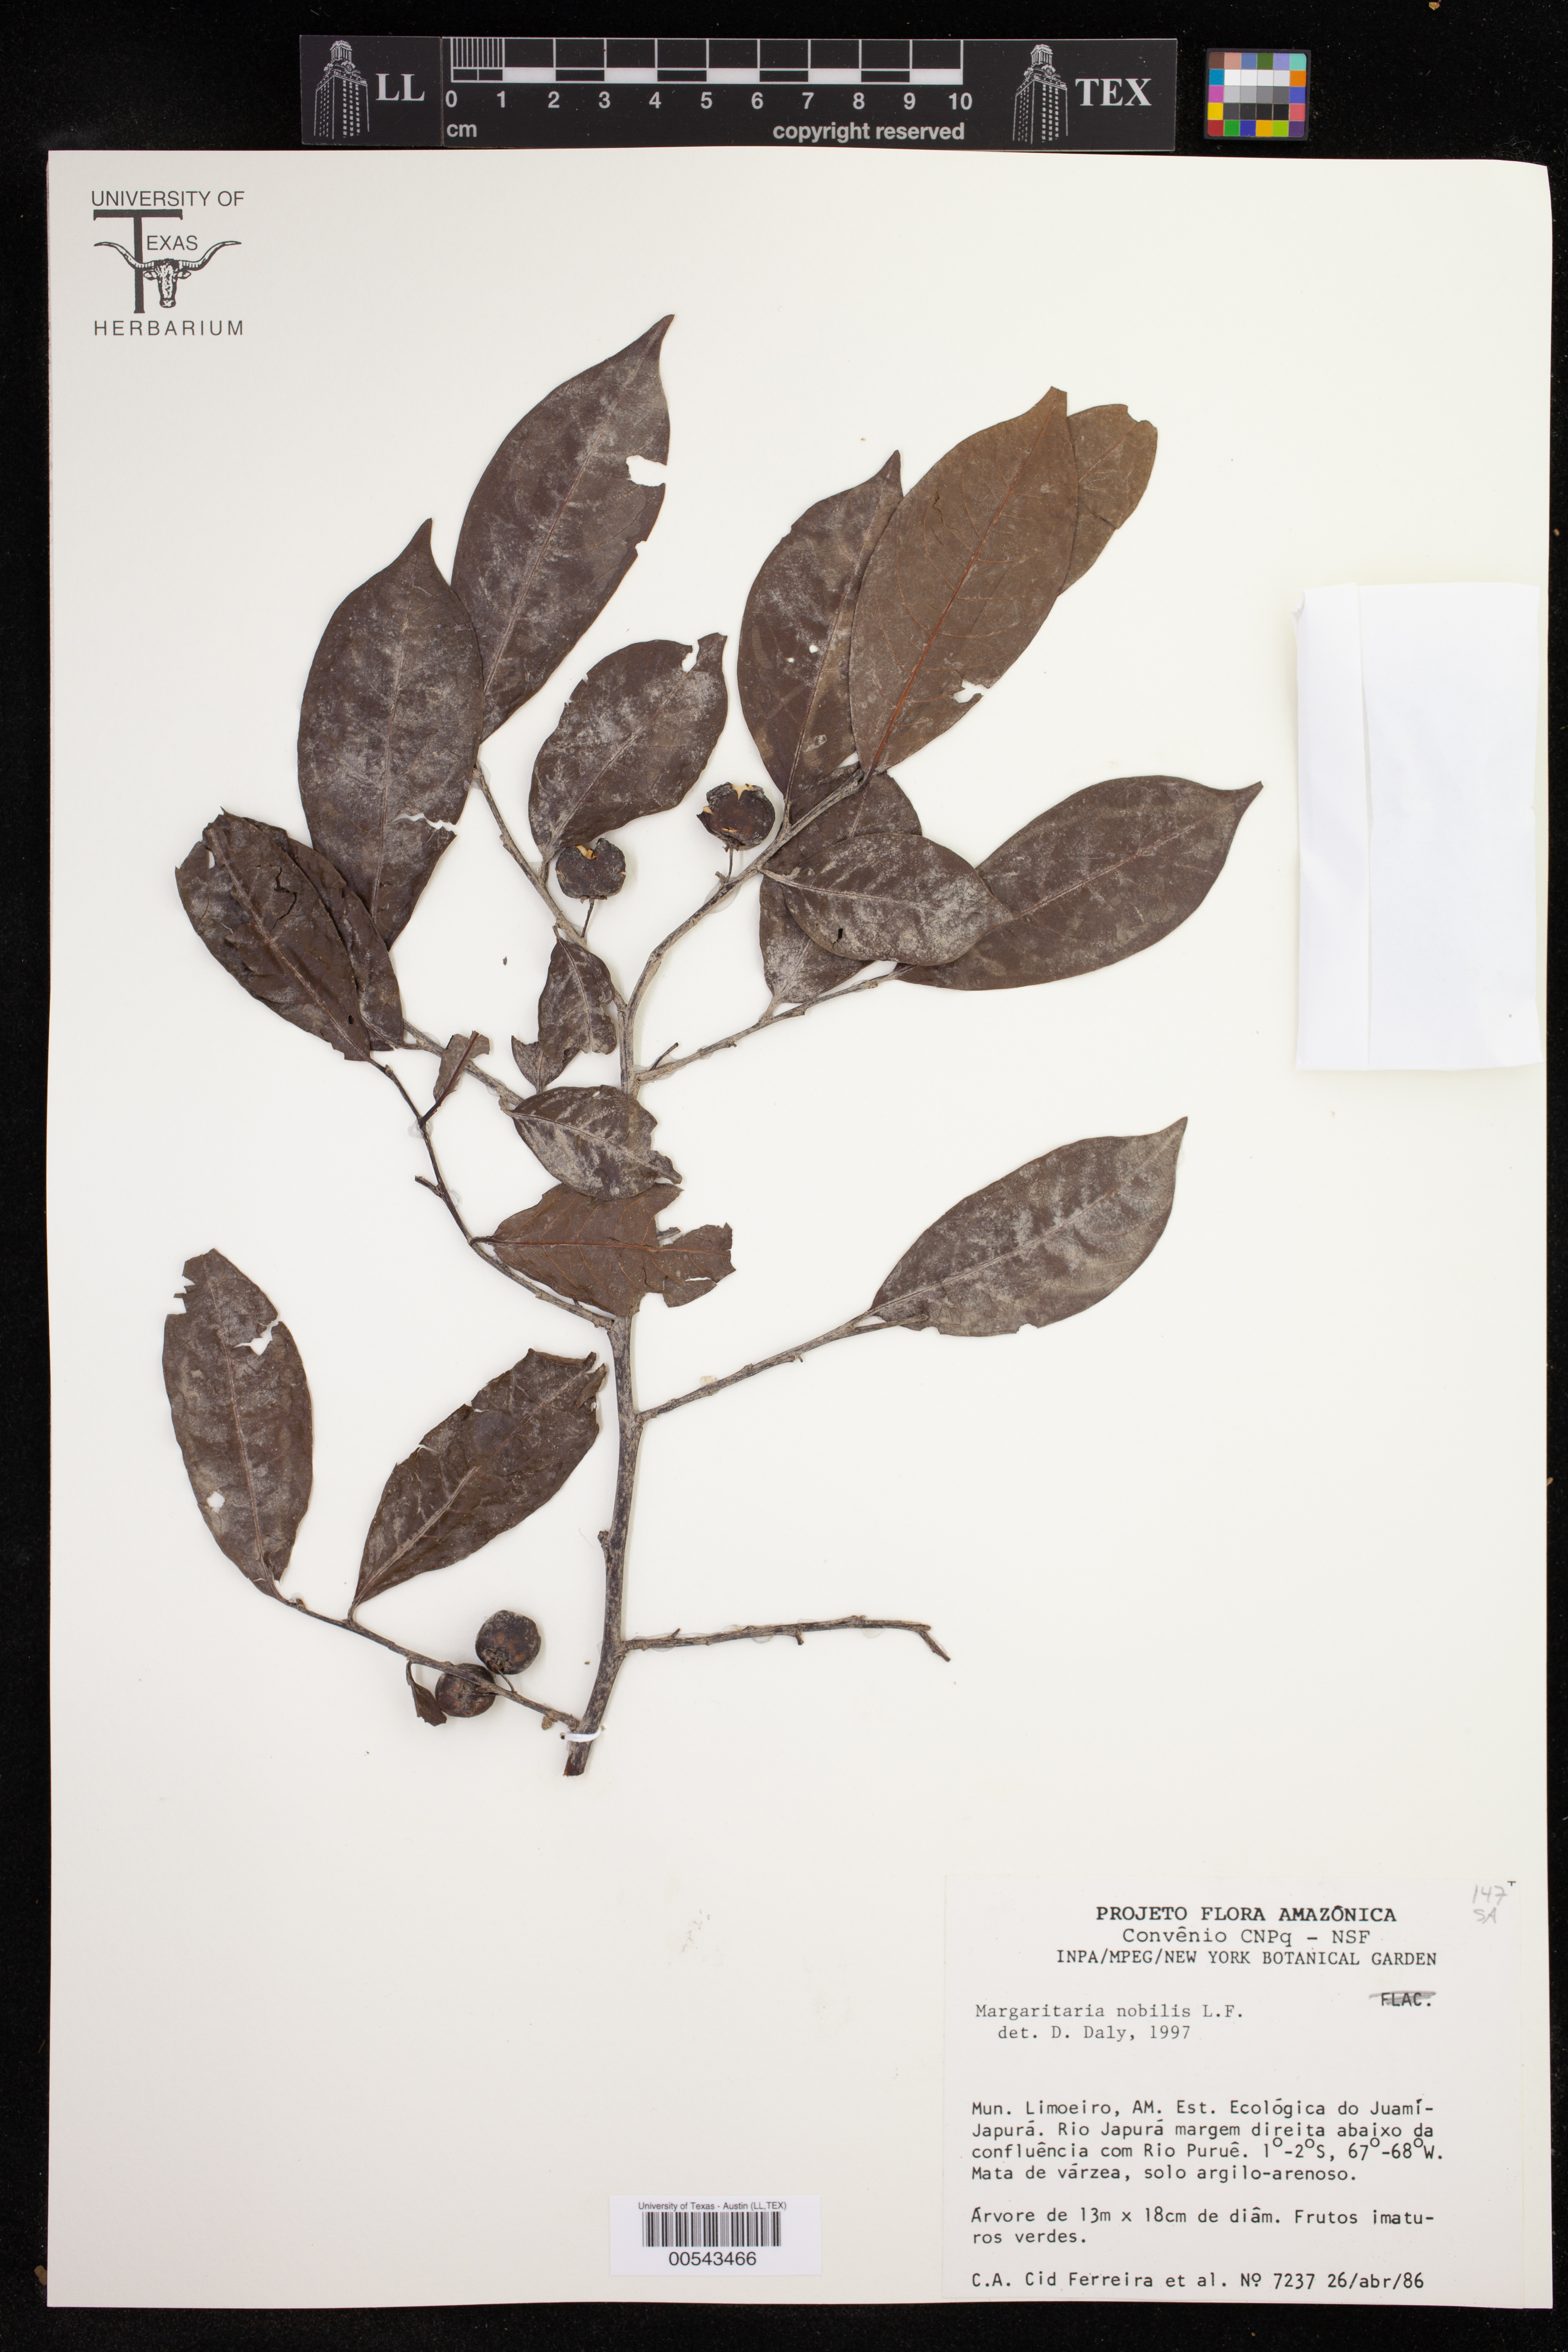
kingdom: Plantae
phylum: Tracheophyta
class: Magnoliopsida
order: Malpighiales
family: Phyllanthaceae
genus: Margaritaria
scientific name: Margaritaria nobilis
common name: Goose berry
